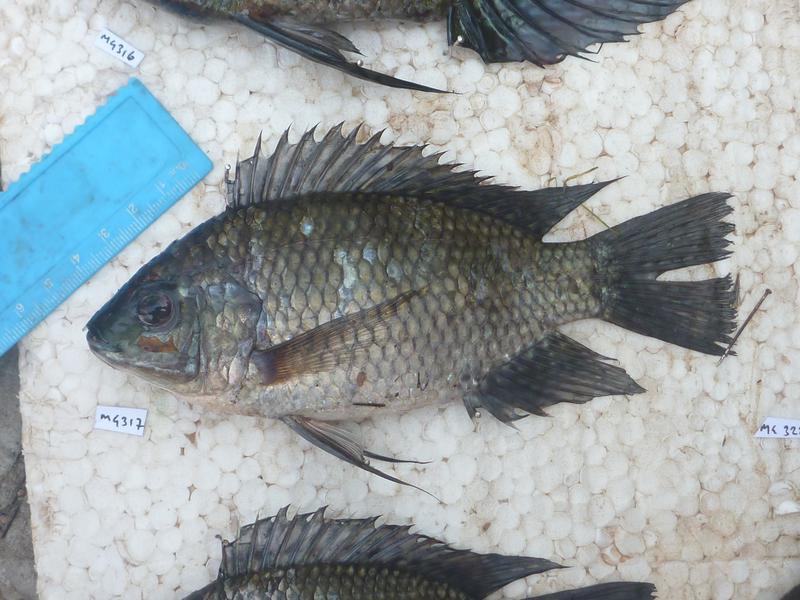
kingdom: Animalia
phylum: Chordata
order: Perciformes
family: Cichlidae
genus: Oreochromis
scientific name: Oreochromis leucostictus
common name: Blue spotted tilapia
